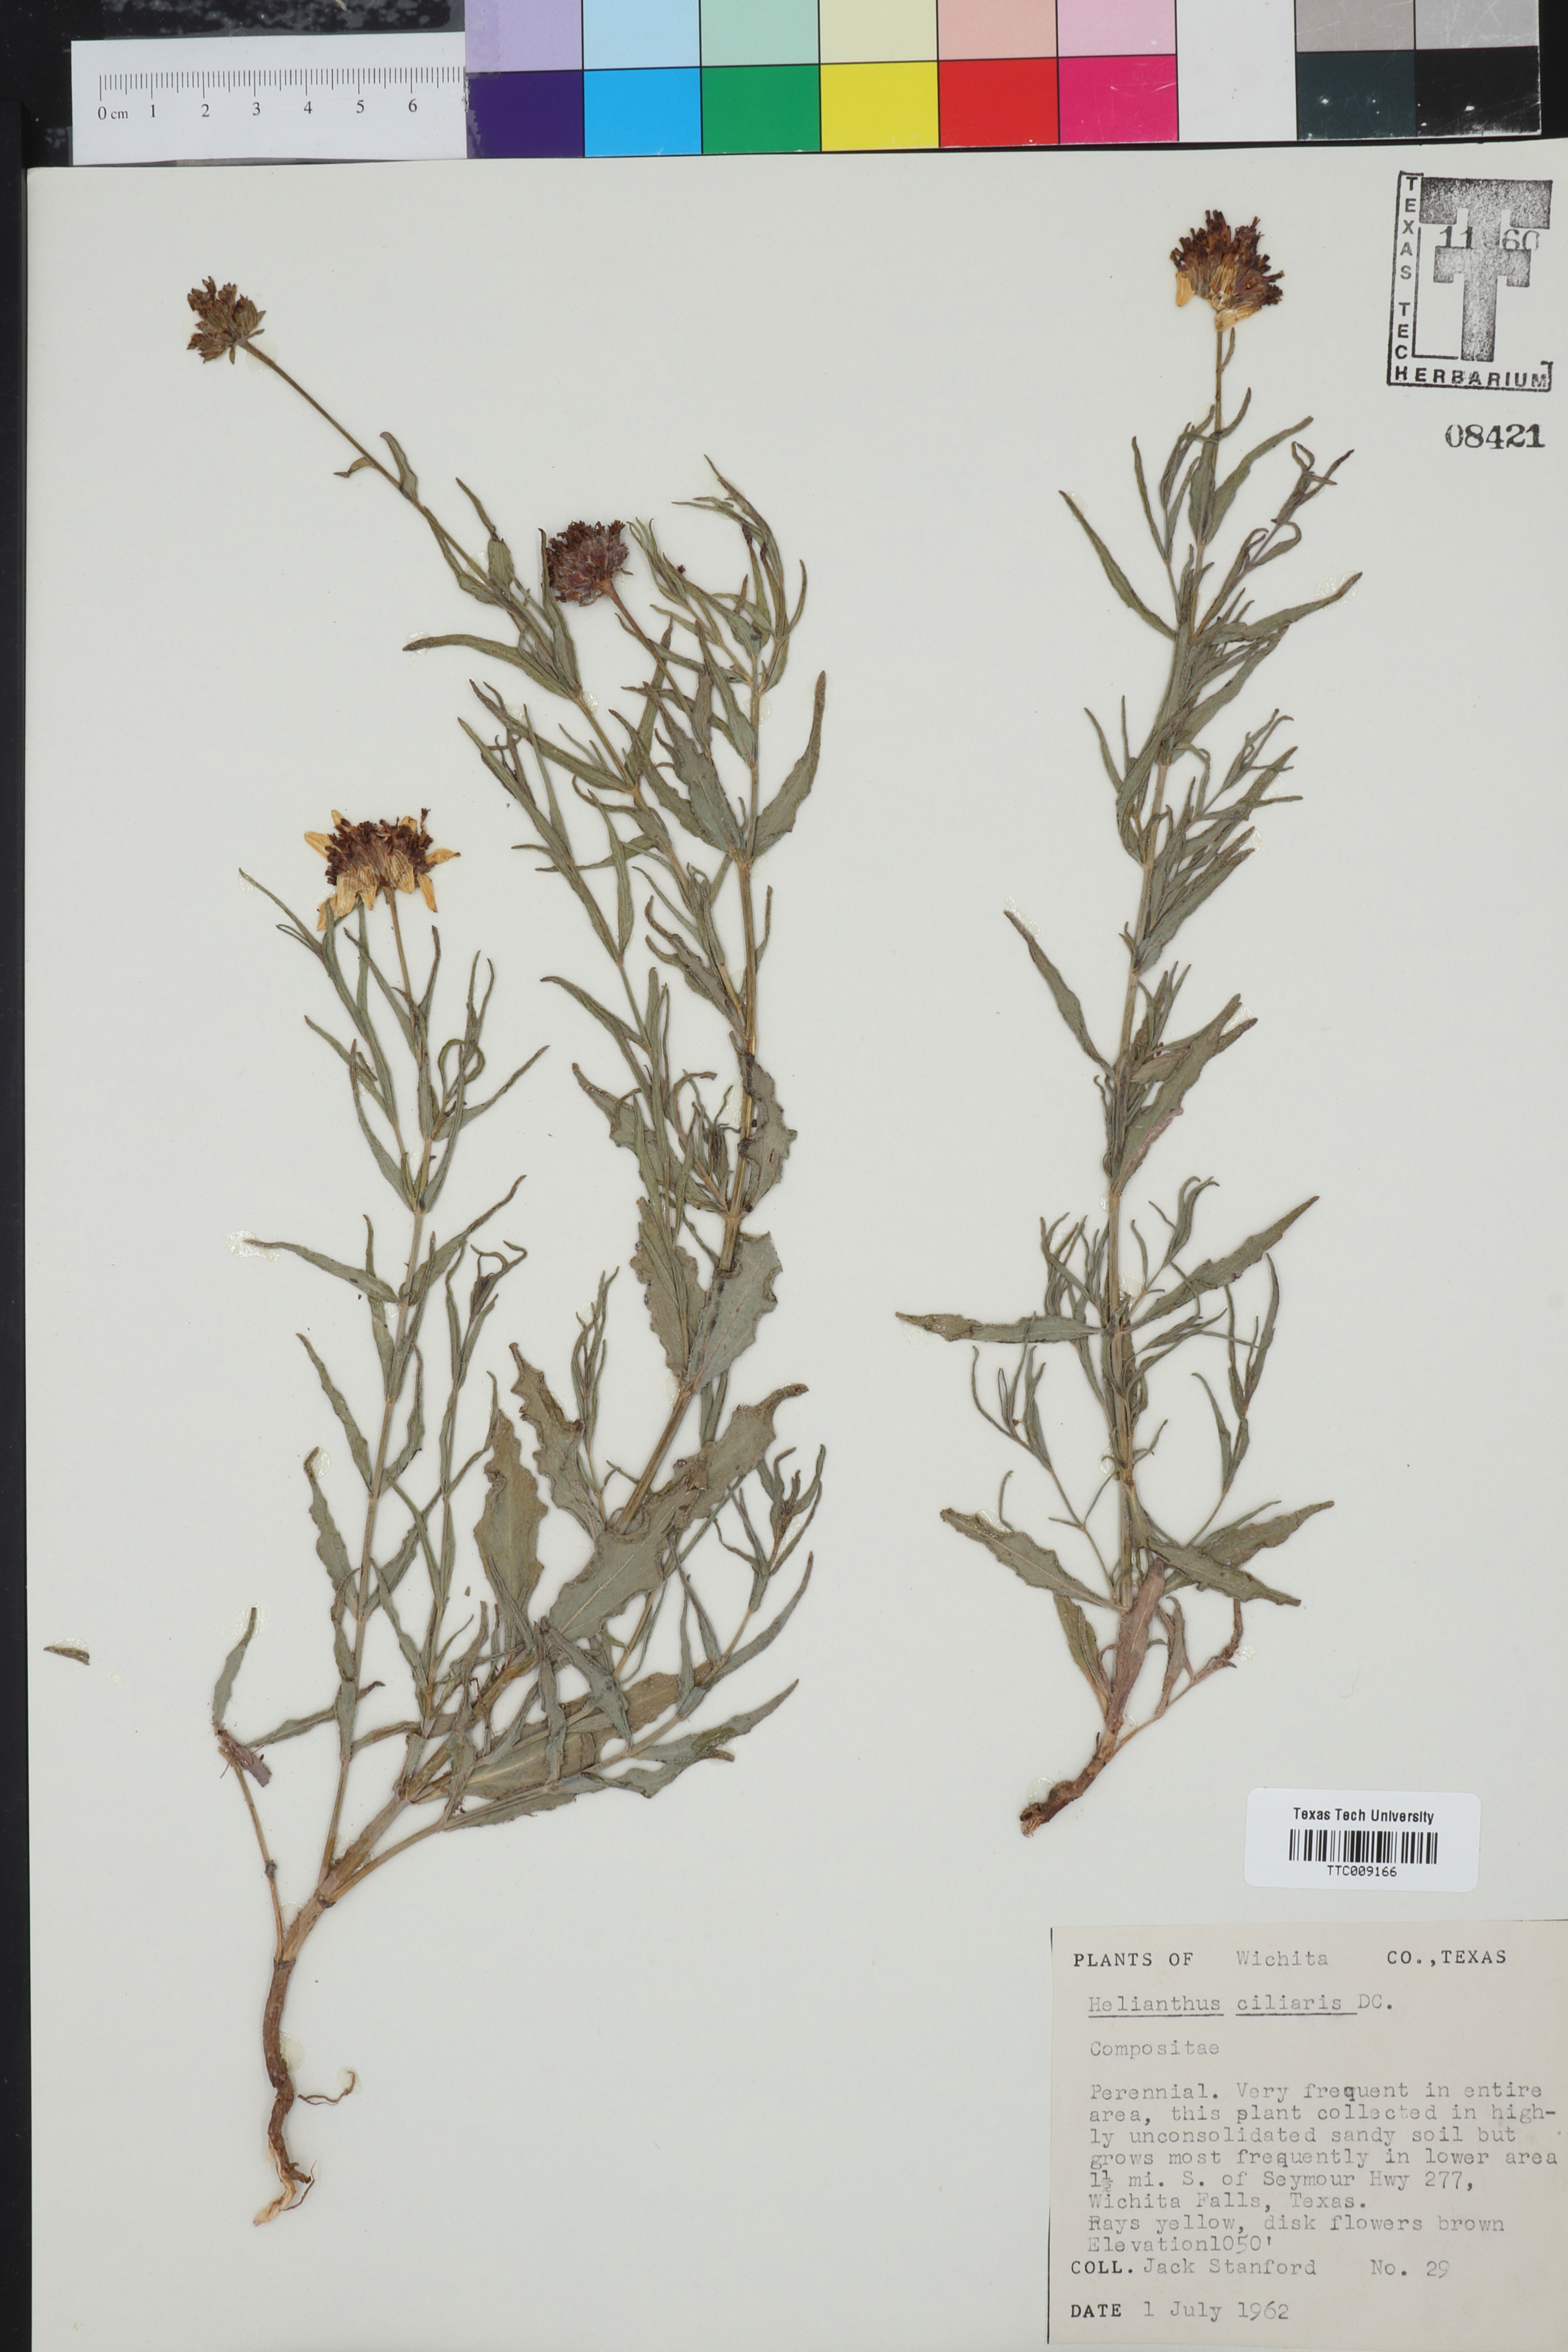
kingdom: Plantae
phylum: Tracheophyta
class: Magnoliopsida
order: Asterales
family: Asteraceae
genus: Helianthus
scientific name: Helianthus ciliaris
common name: Texas blueweed
